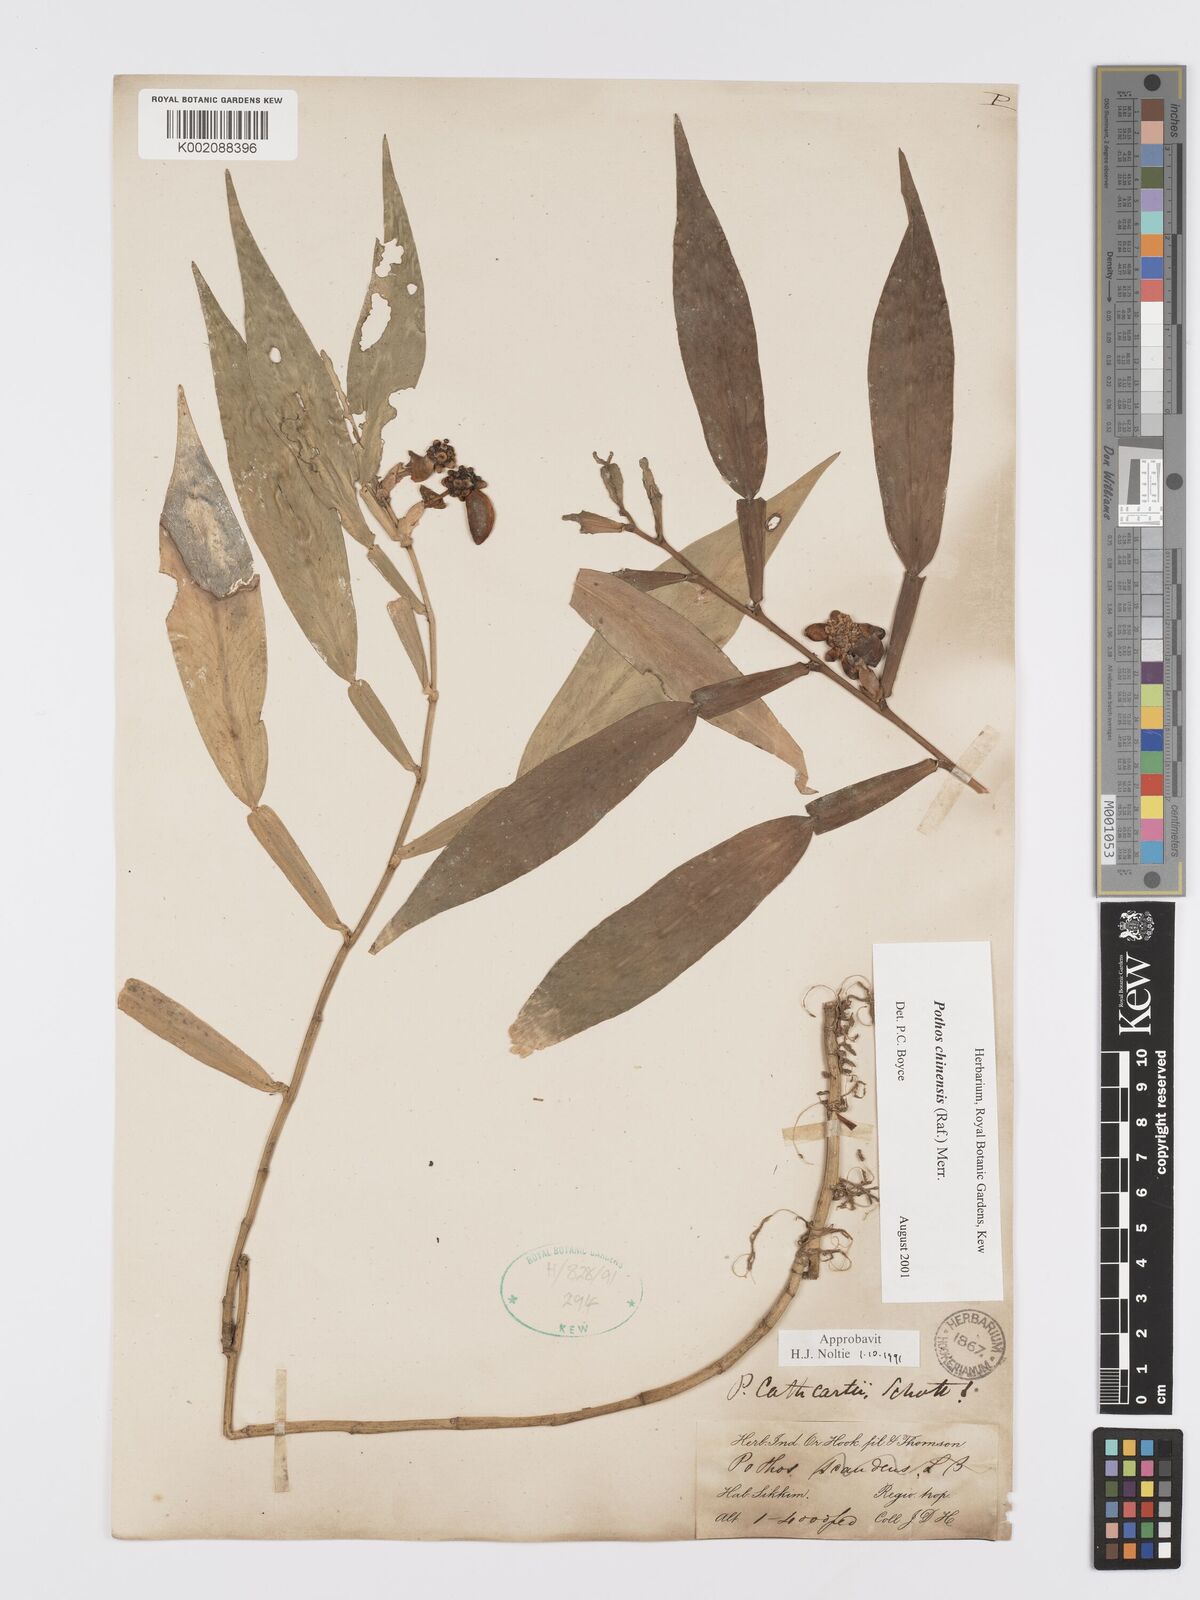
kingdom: Plantae
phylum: Tracheophyta
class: Liliopsida
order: Alismatales
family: Araceae
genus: Pothos
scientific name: Pothos chinensis
